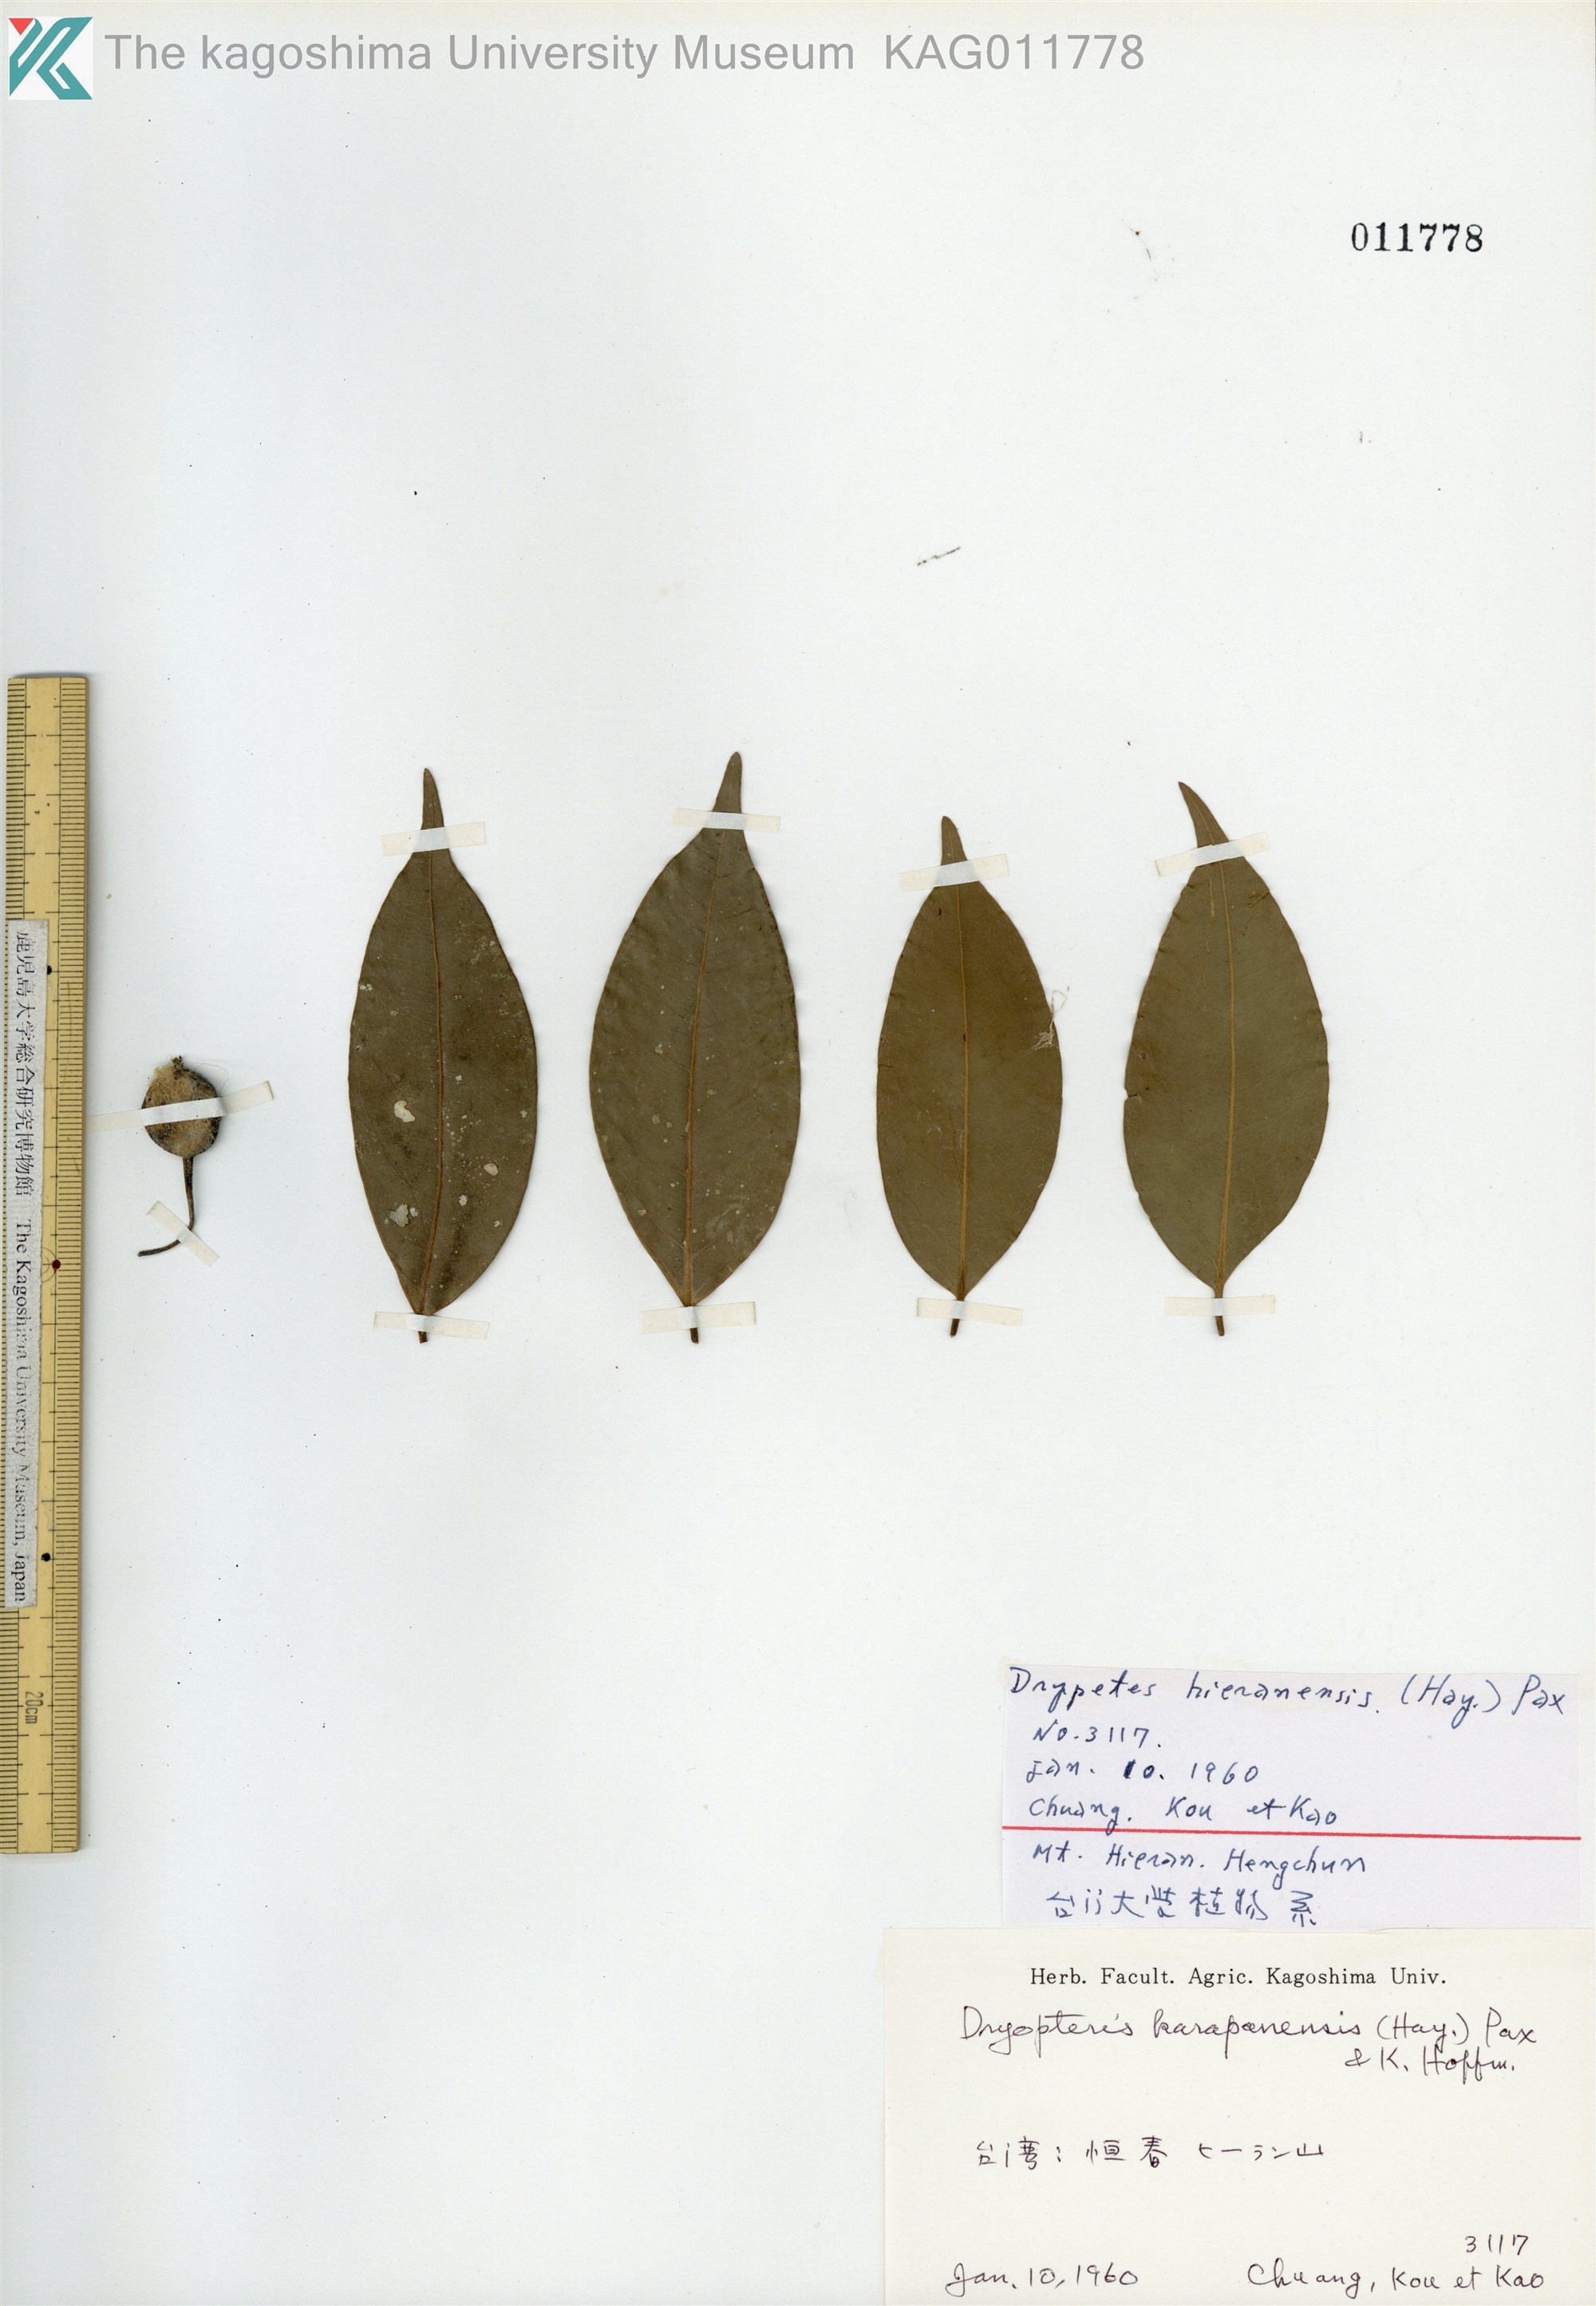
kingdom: Plantae
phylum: Tracheophyta
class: Magnoliopsida
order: Malpighiales
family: Putranjivaceae
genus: Drypetes
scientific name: Drypetes indica
